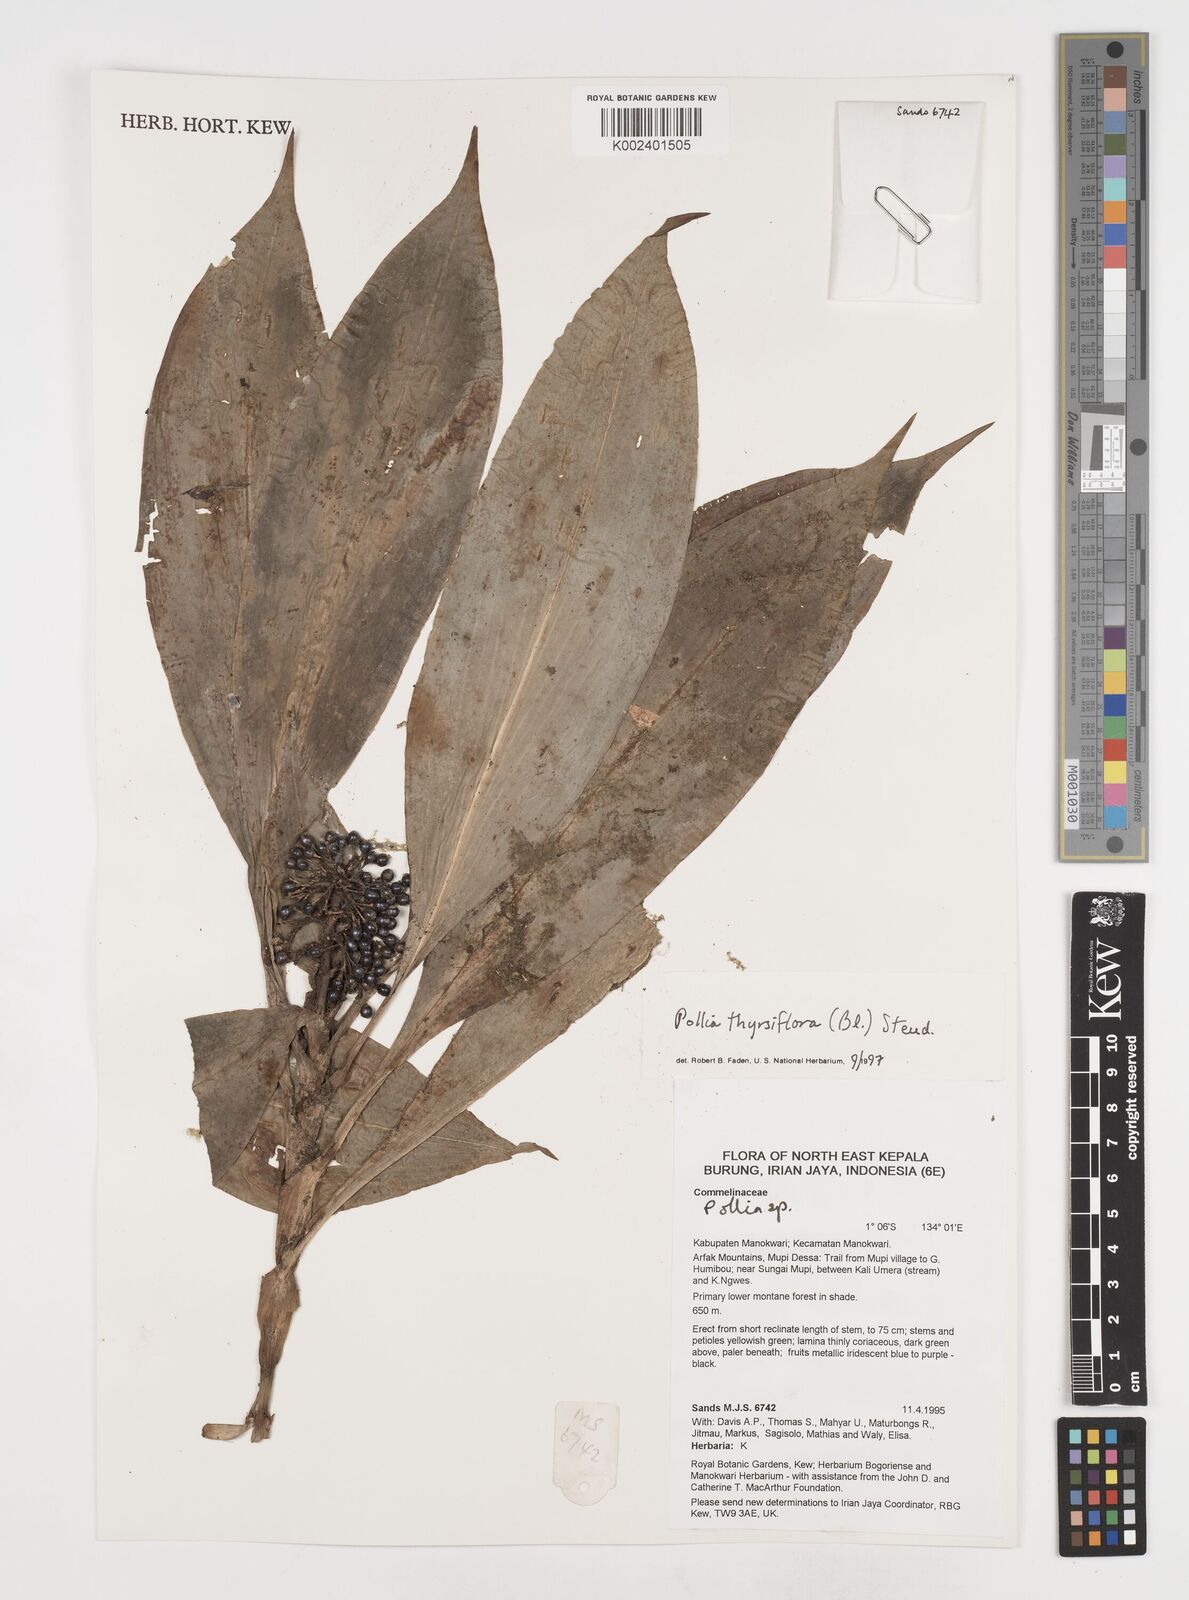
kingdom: Plantae
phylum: Tracheophyta
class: Liliopsida
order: Commelinales
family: Commelinaceae
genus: Pollia
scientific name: Pollia thyrsiflora
